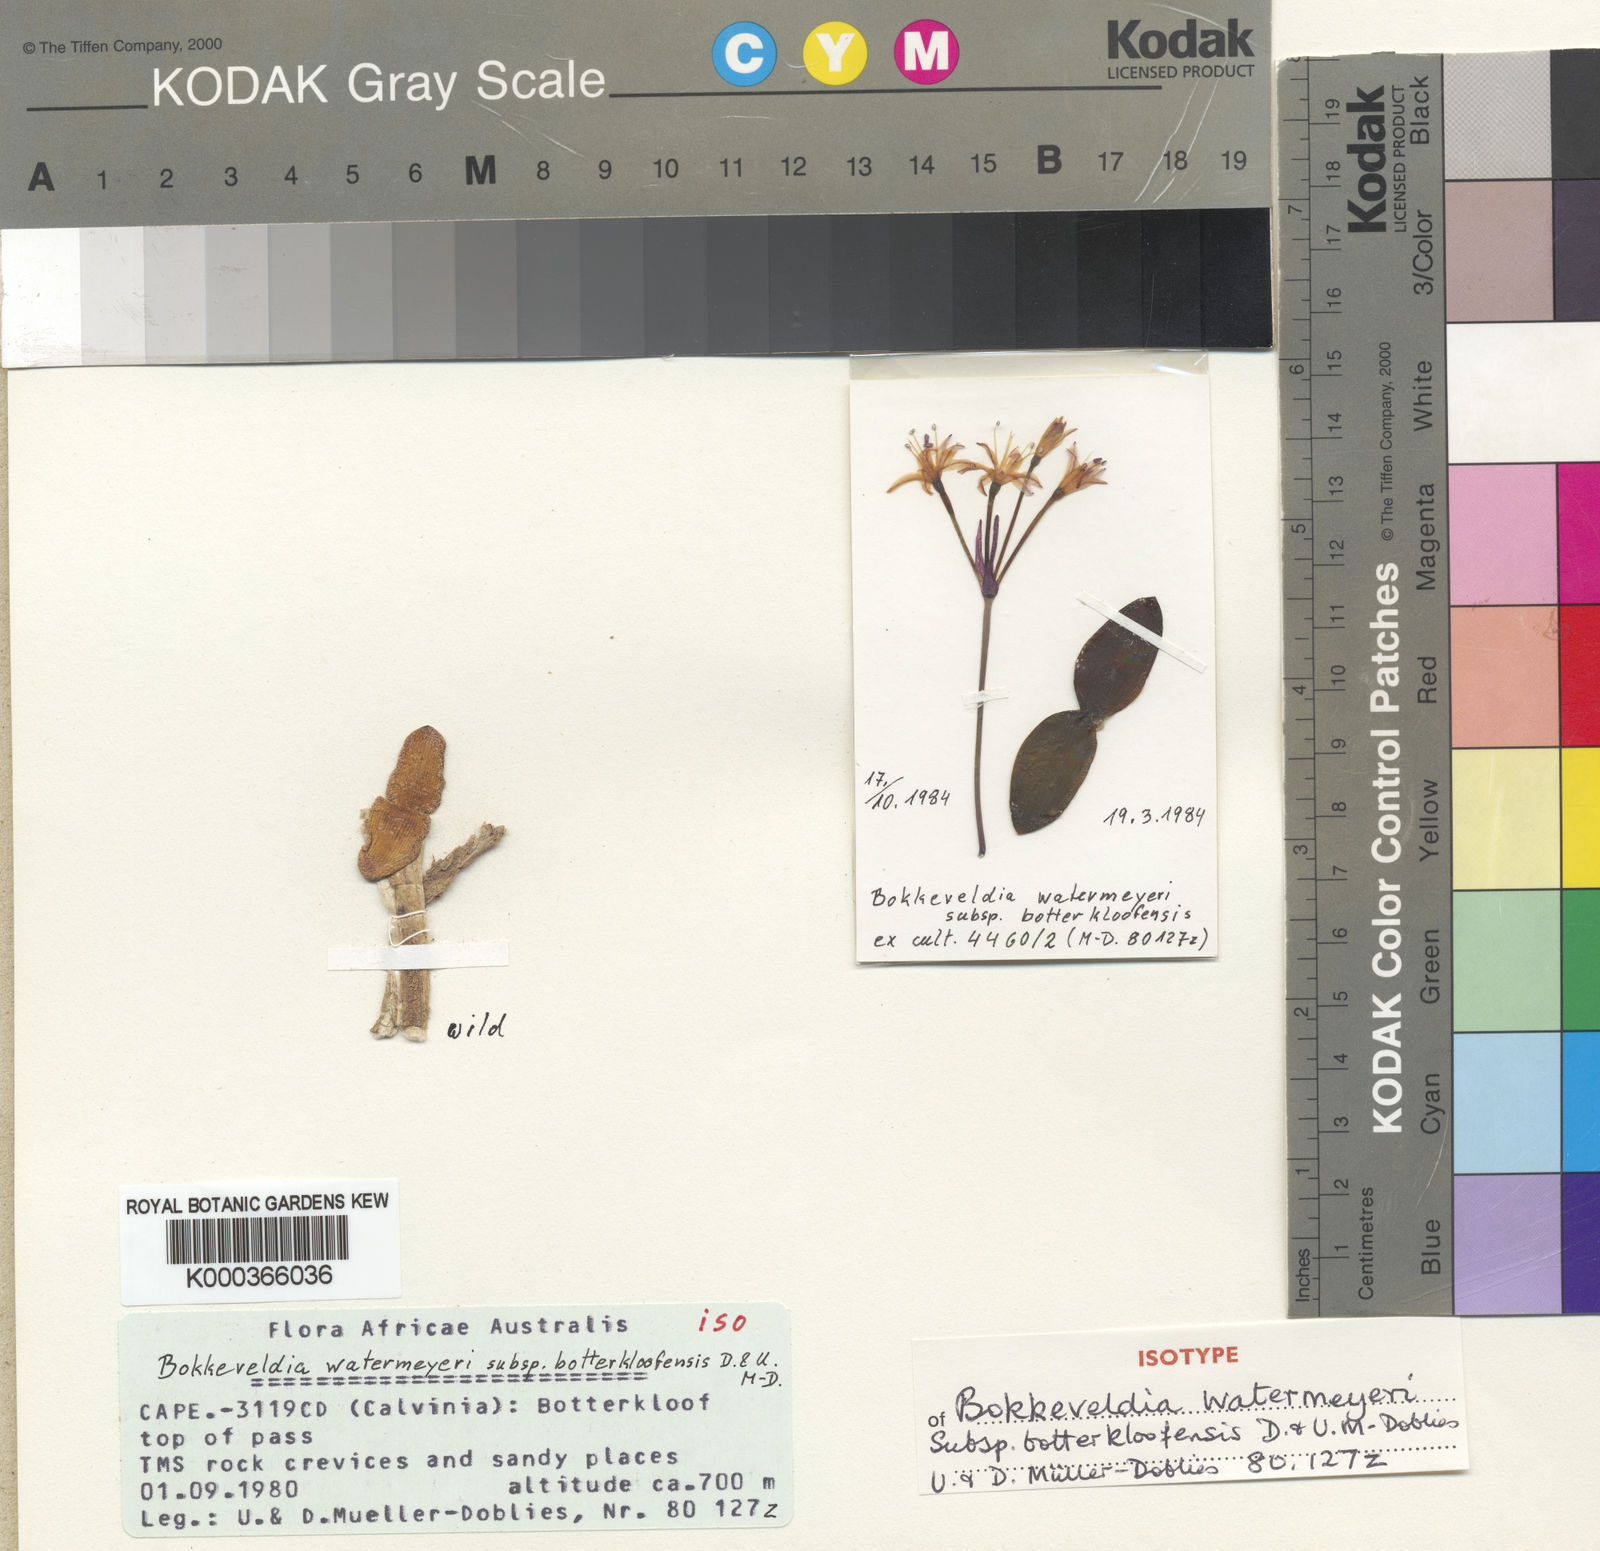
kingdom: Plantae
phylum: Tracheophyta
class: Liliopsida
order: Asparagales
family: Amaryllidaceae
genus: Strumaria
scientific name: Strumaria watermeyeri
